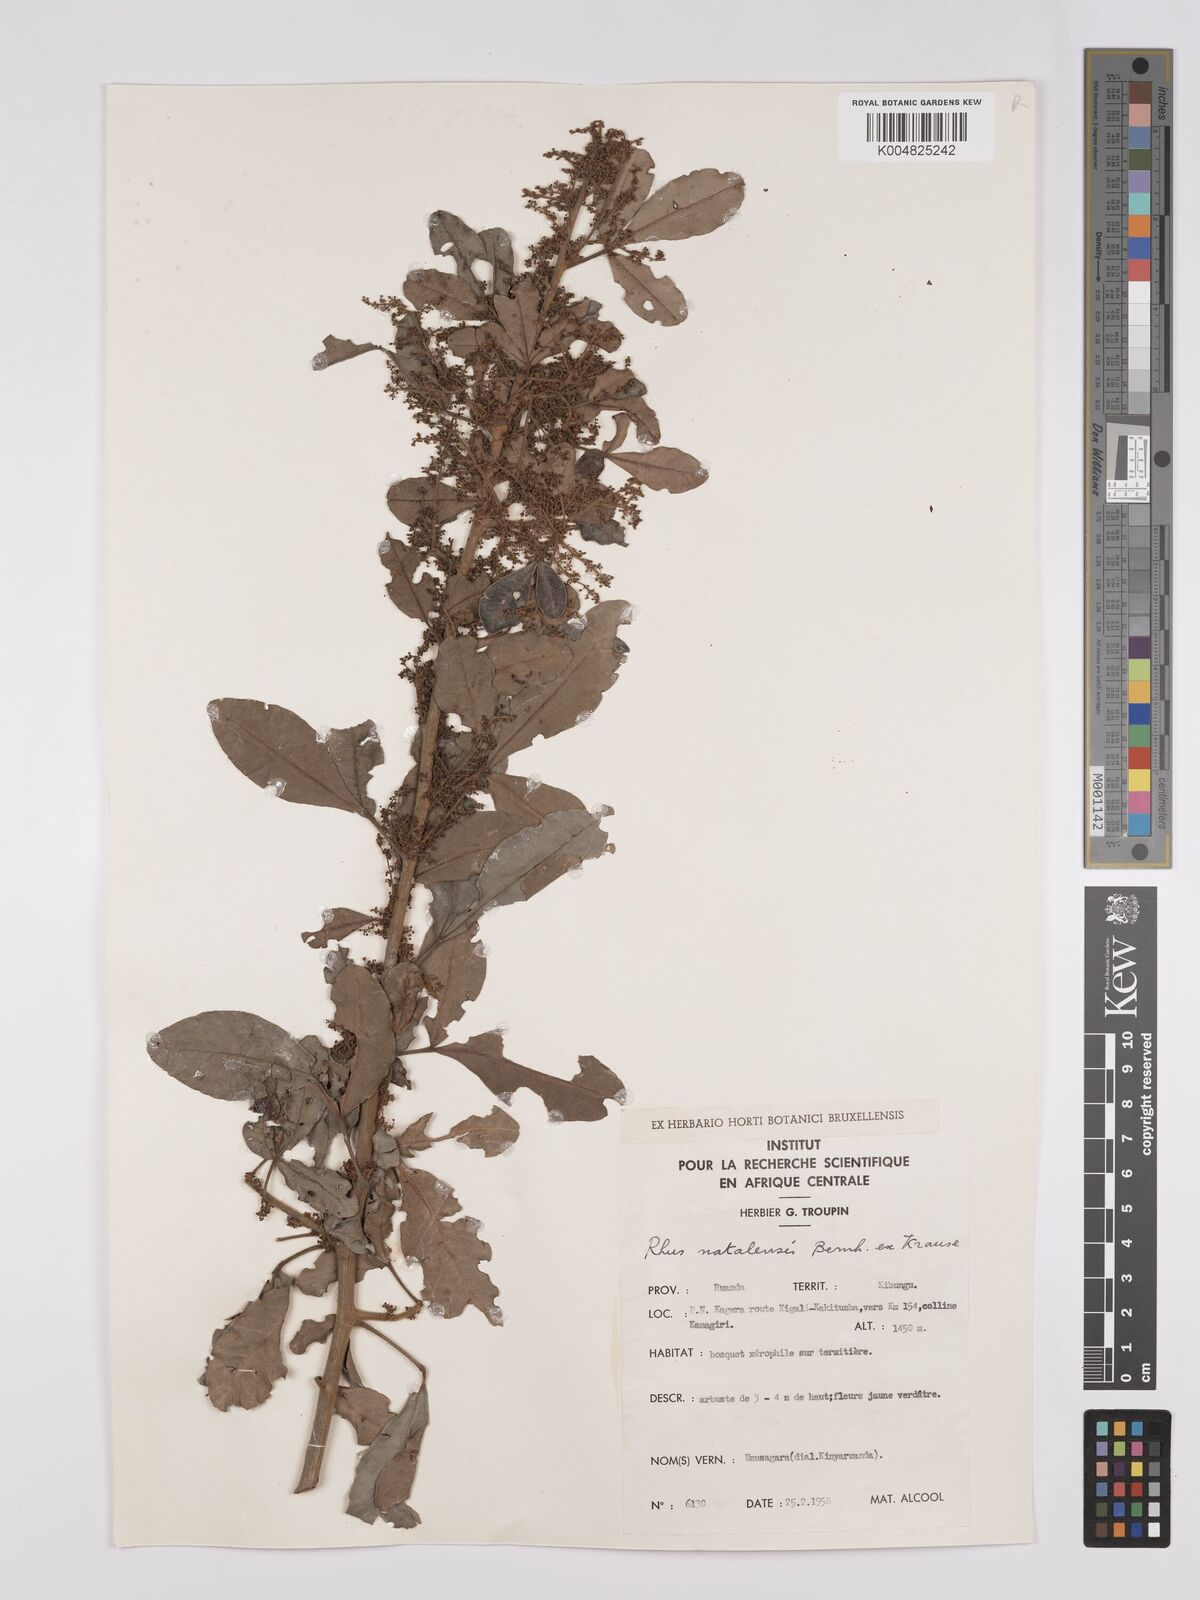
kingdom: Plantae
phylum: Tracheophyta
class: Magnoliopsida
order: Sapindales
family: Anacardiaceae
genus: Searsia
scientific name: Searsia natalensis
